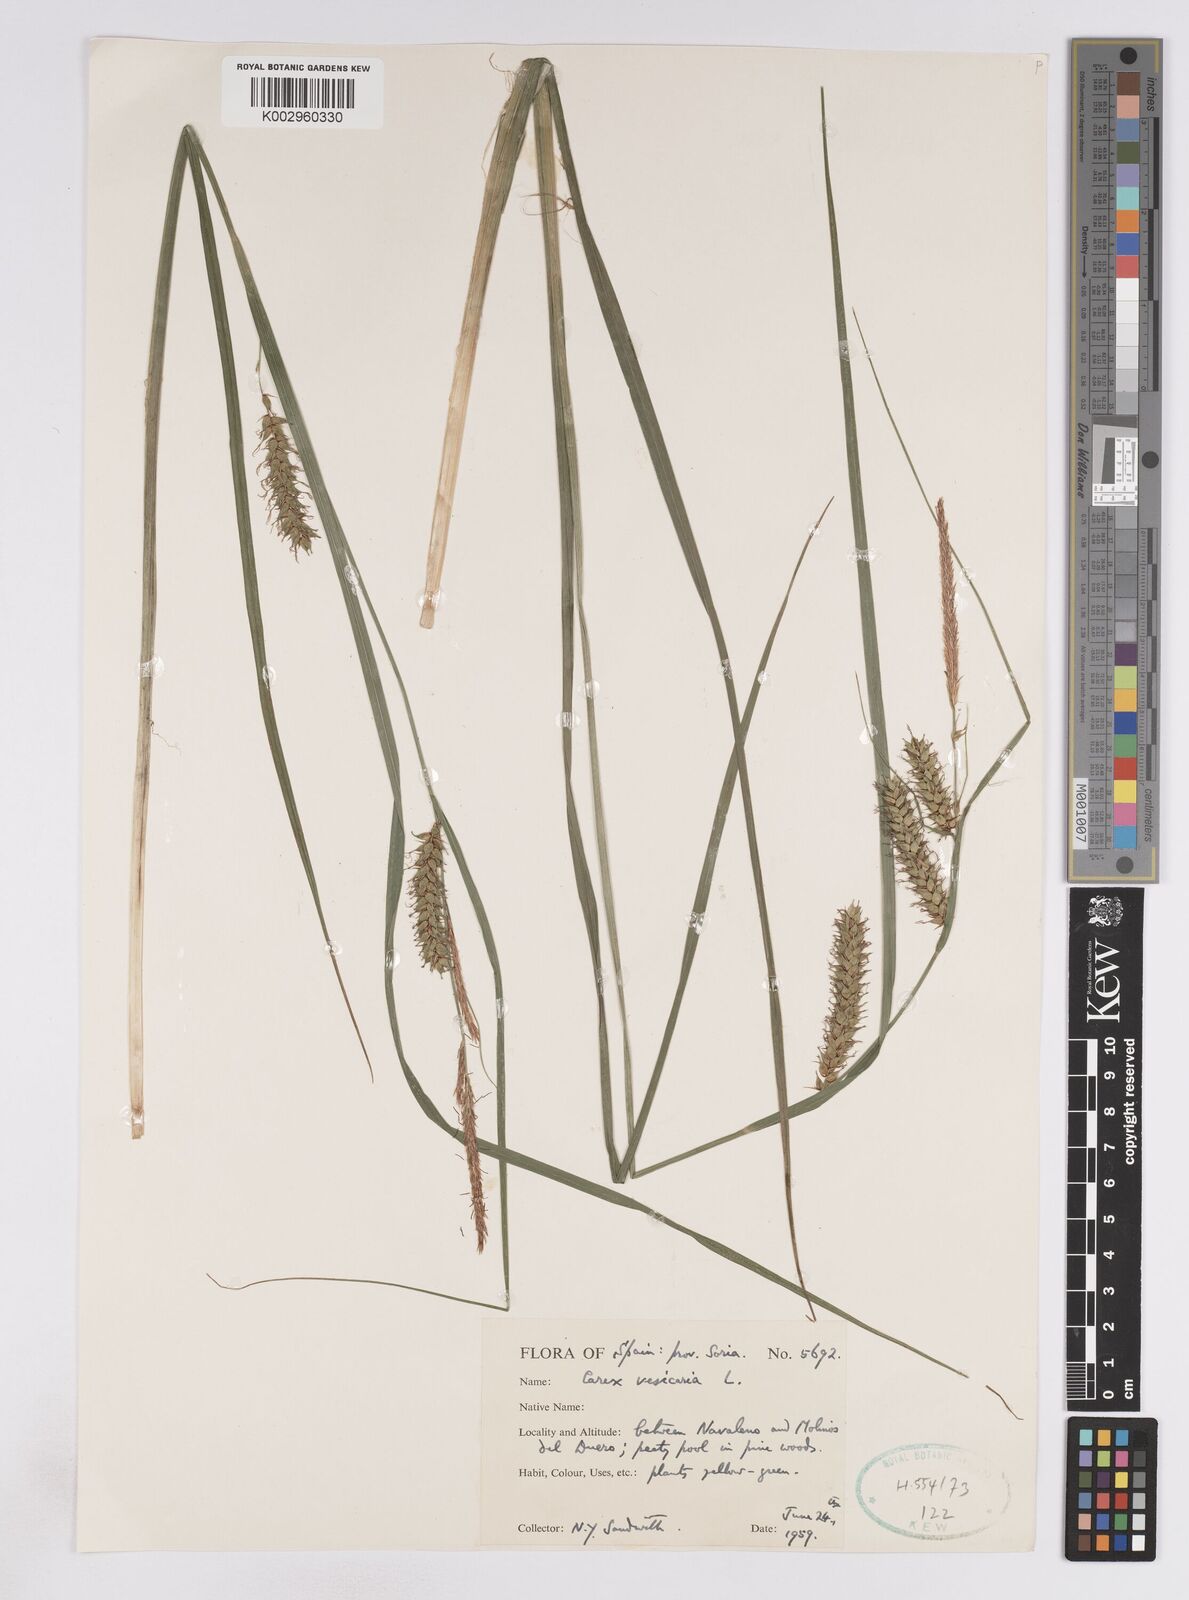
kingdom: Plantae
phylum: Tracheophyta
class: Liliopsida
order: Poales
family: Cyperaceae
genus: Carex
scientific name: Carex vesicaria
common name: Bladder-sedge
